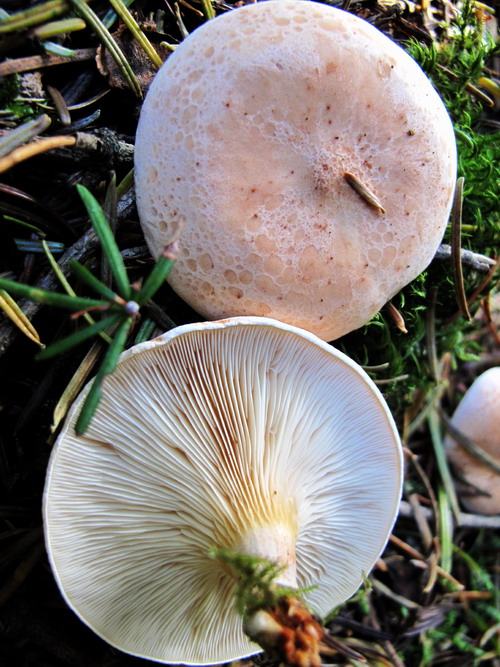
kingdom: Fungi
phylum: Basidiomycota
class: Agaricomycetes
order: Agaricales
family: Tricholomataceae
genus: Paralepista
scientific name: Paralepista gilva
